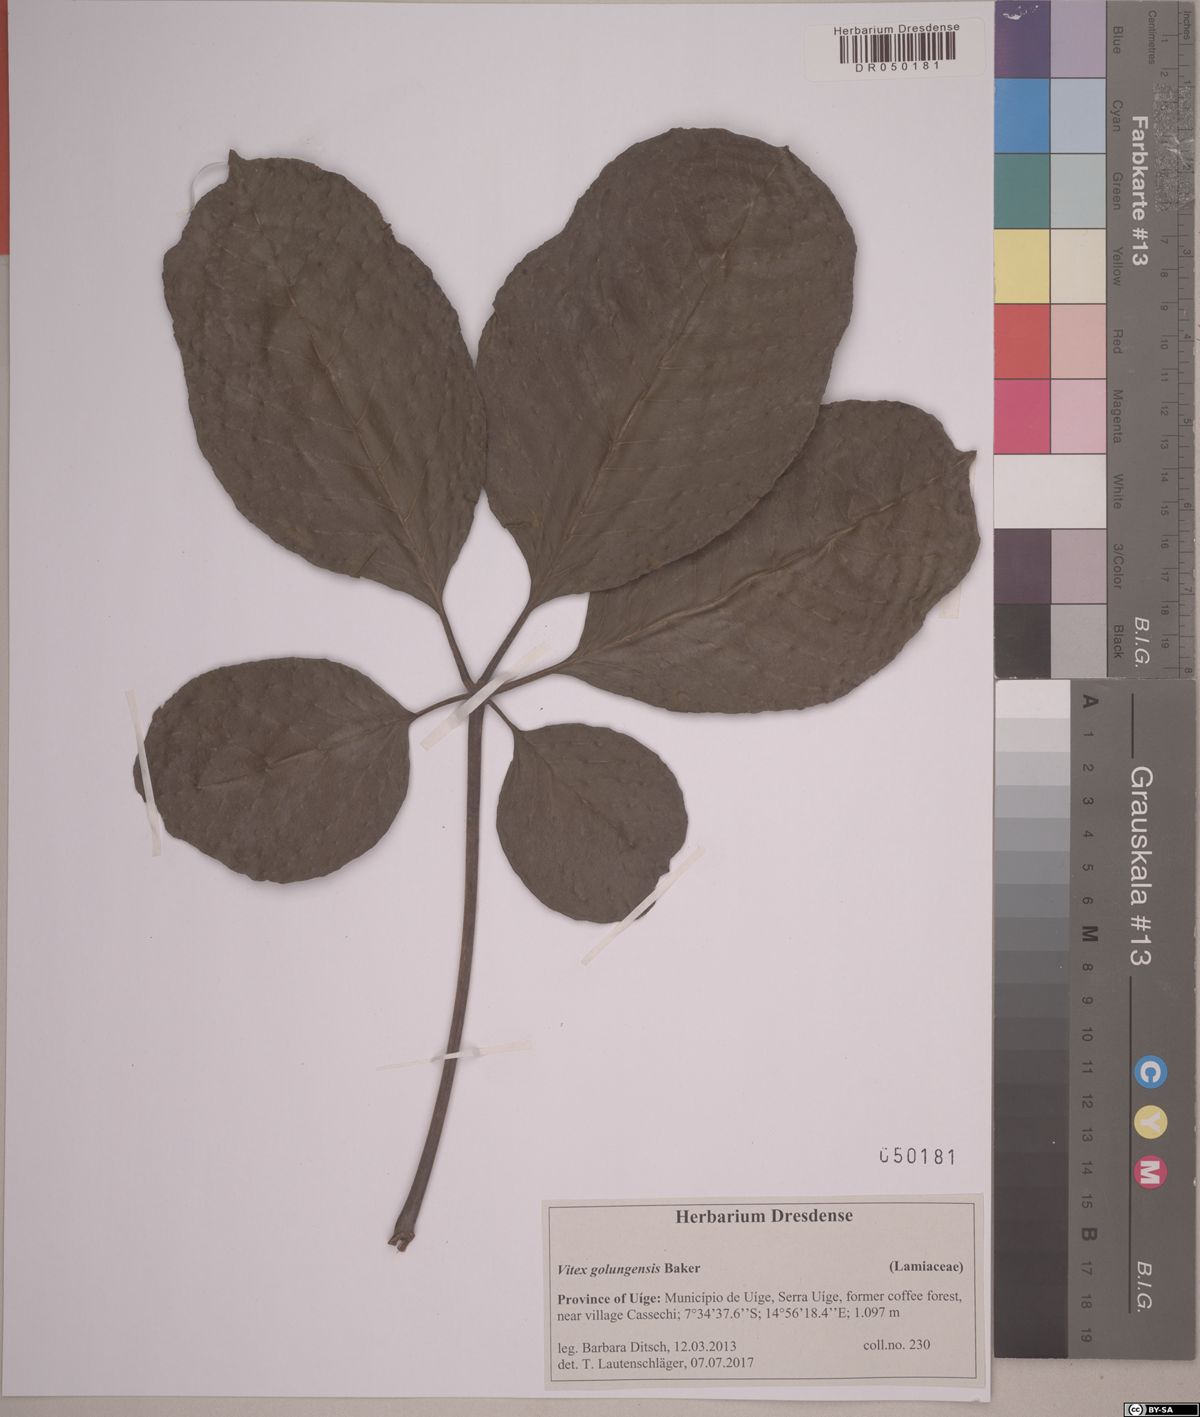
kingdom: Plantae
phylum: Tracheophyta
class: Magnoliopsida
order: Lamiales
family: Lamiaceae
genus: Vitex
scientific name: Vitex golungensis
